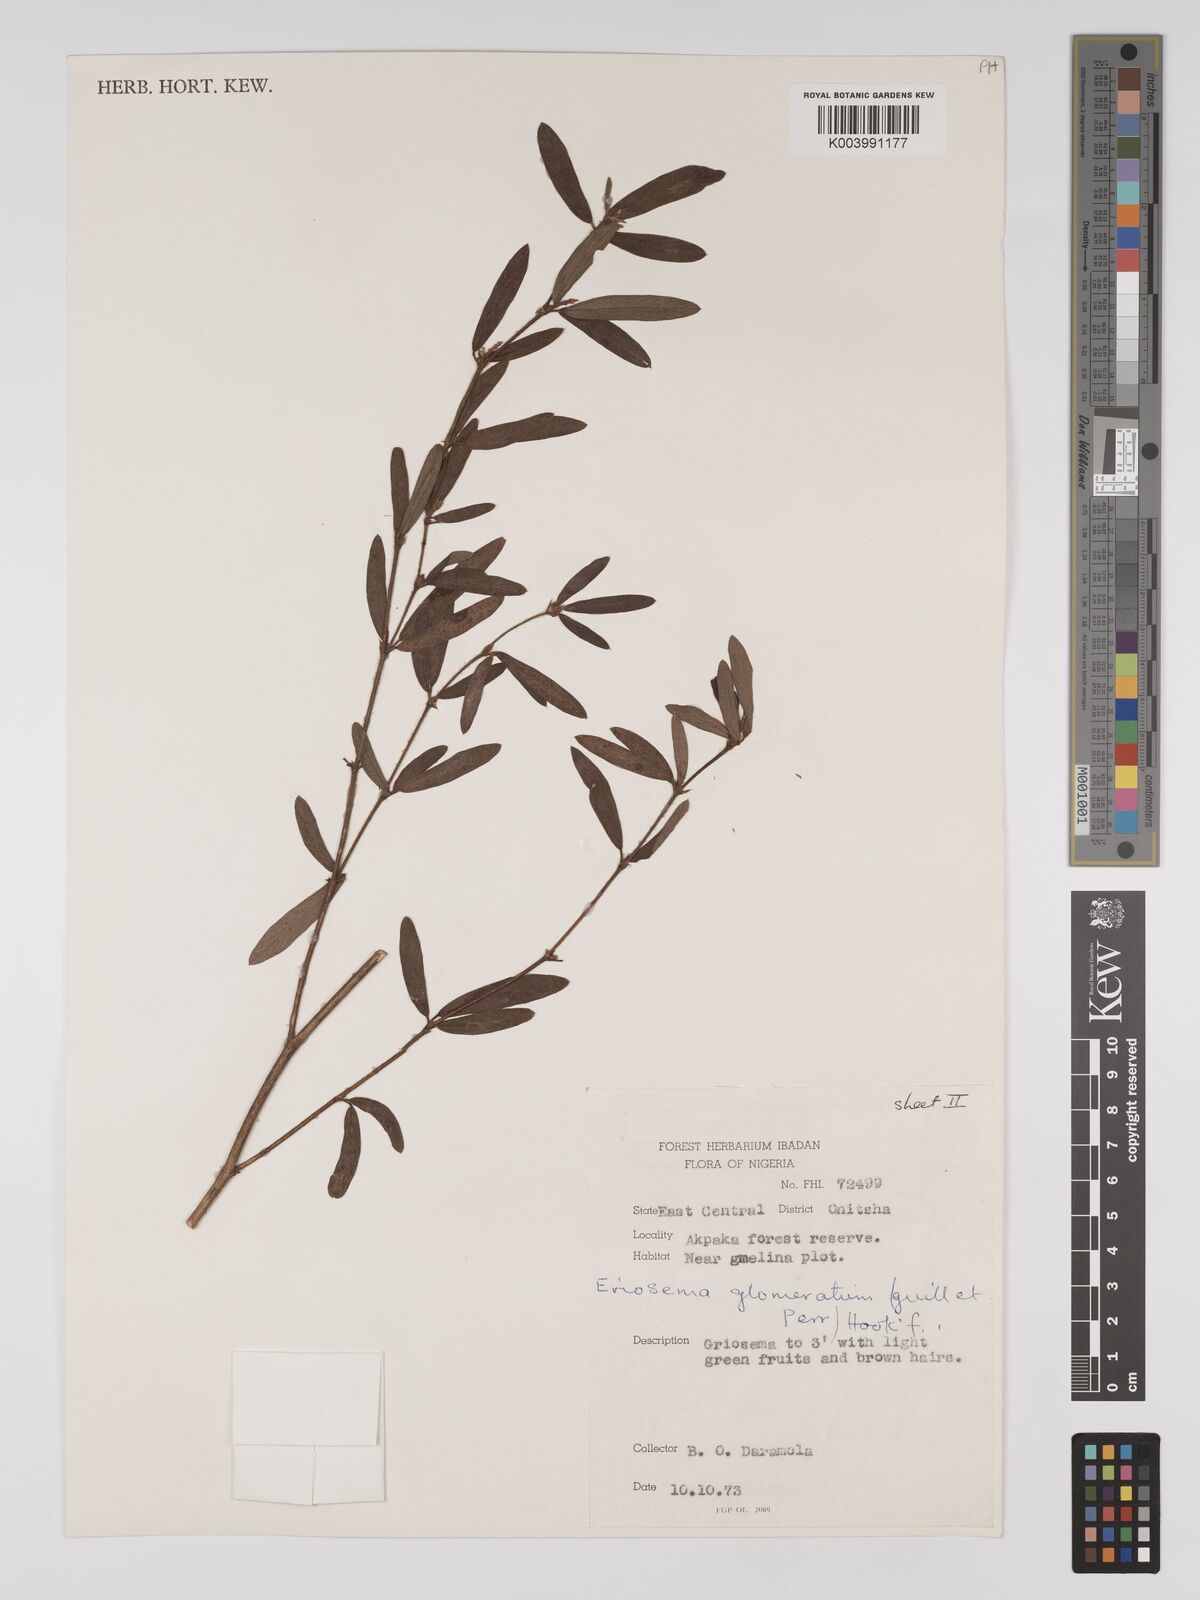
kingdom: Plantae
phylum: Tracheophyta
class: Magnoliopsida
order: Fabales
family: Fabaceae
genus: Eriosema
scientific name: Eriosema glomeratum
